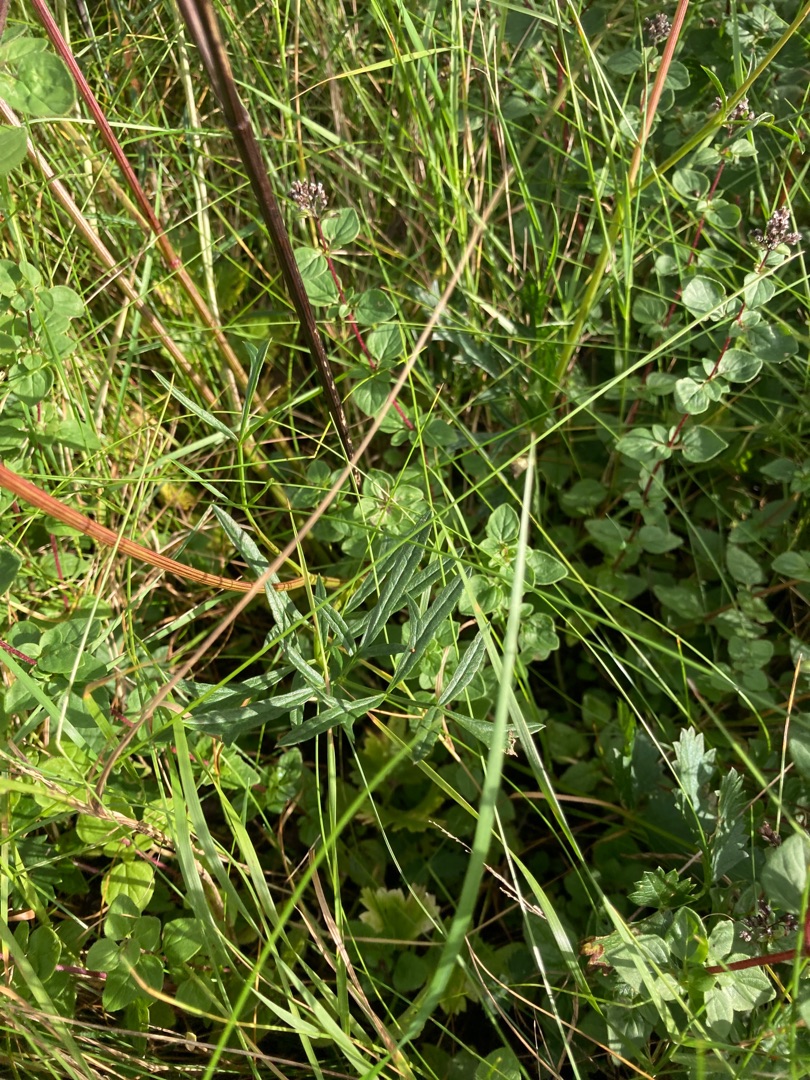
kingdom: Plantae
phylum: Tracheophyta
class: Magnoliopsida
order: Apiales
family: Apiaceae
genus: Pimpinella
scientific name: Pimpinella saxifraga
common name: Almindelig pimpinelle
